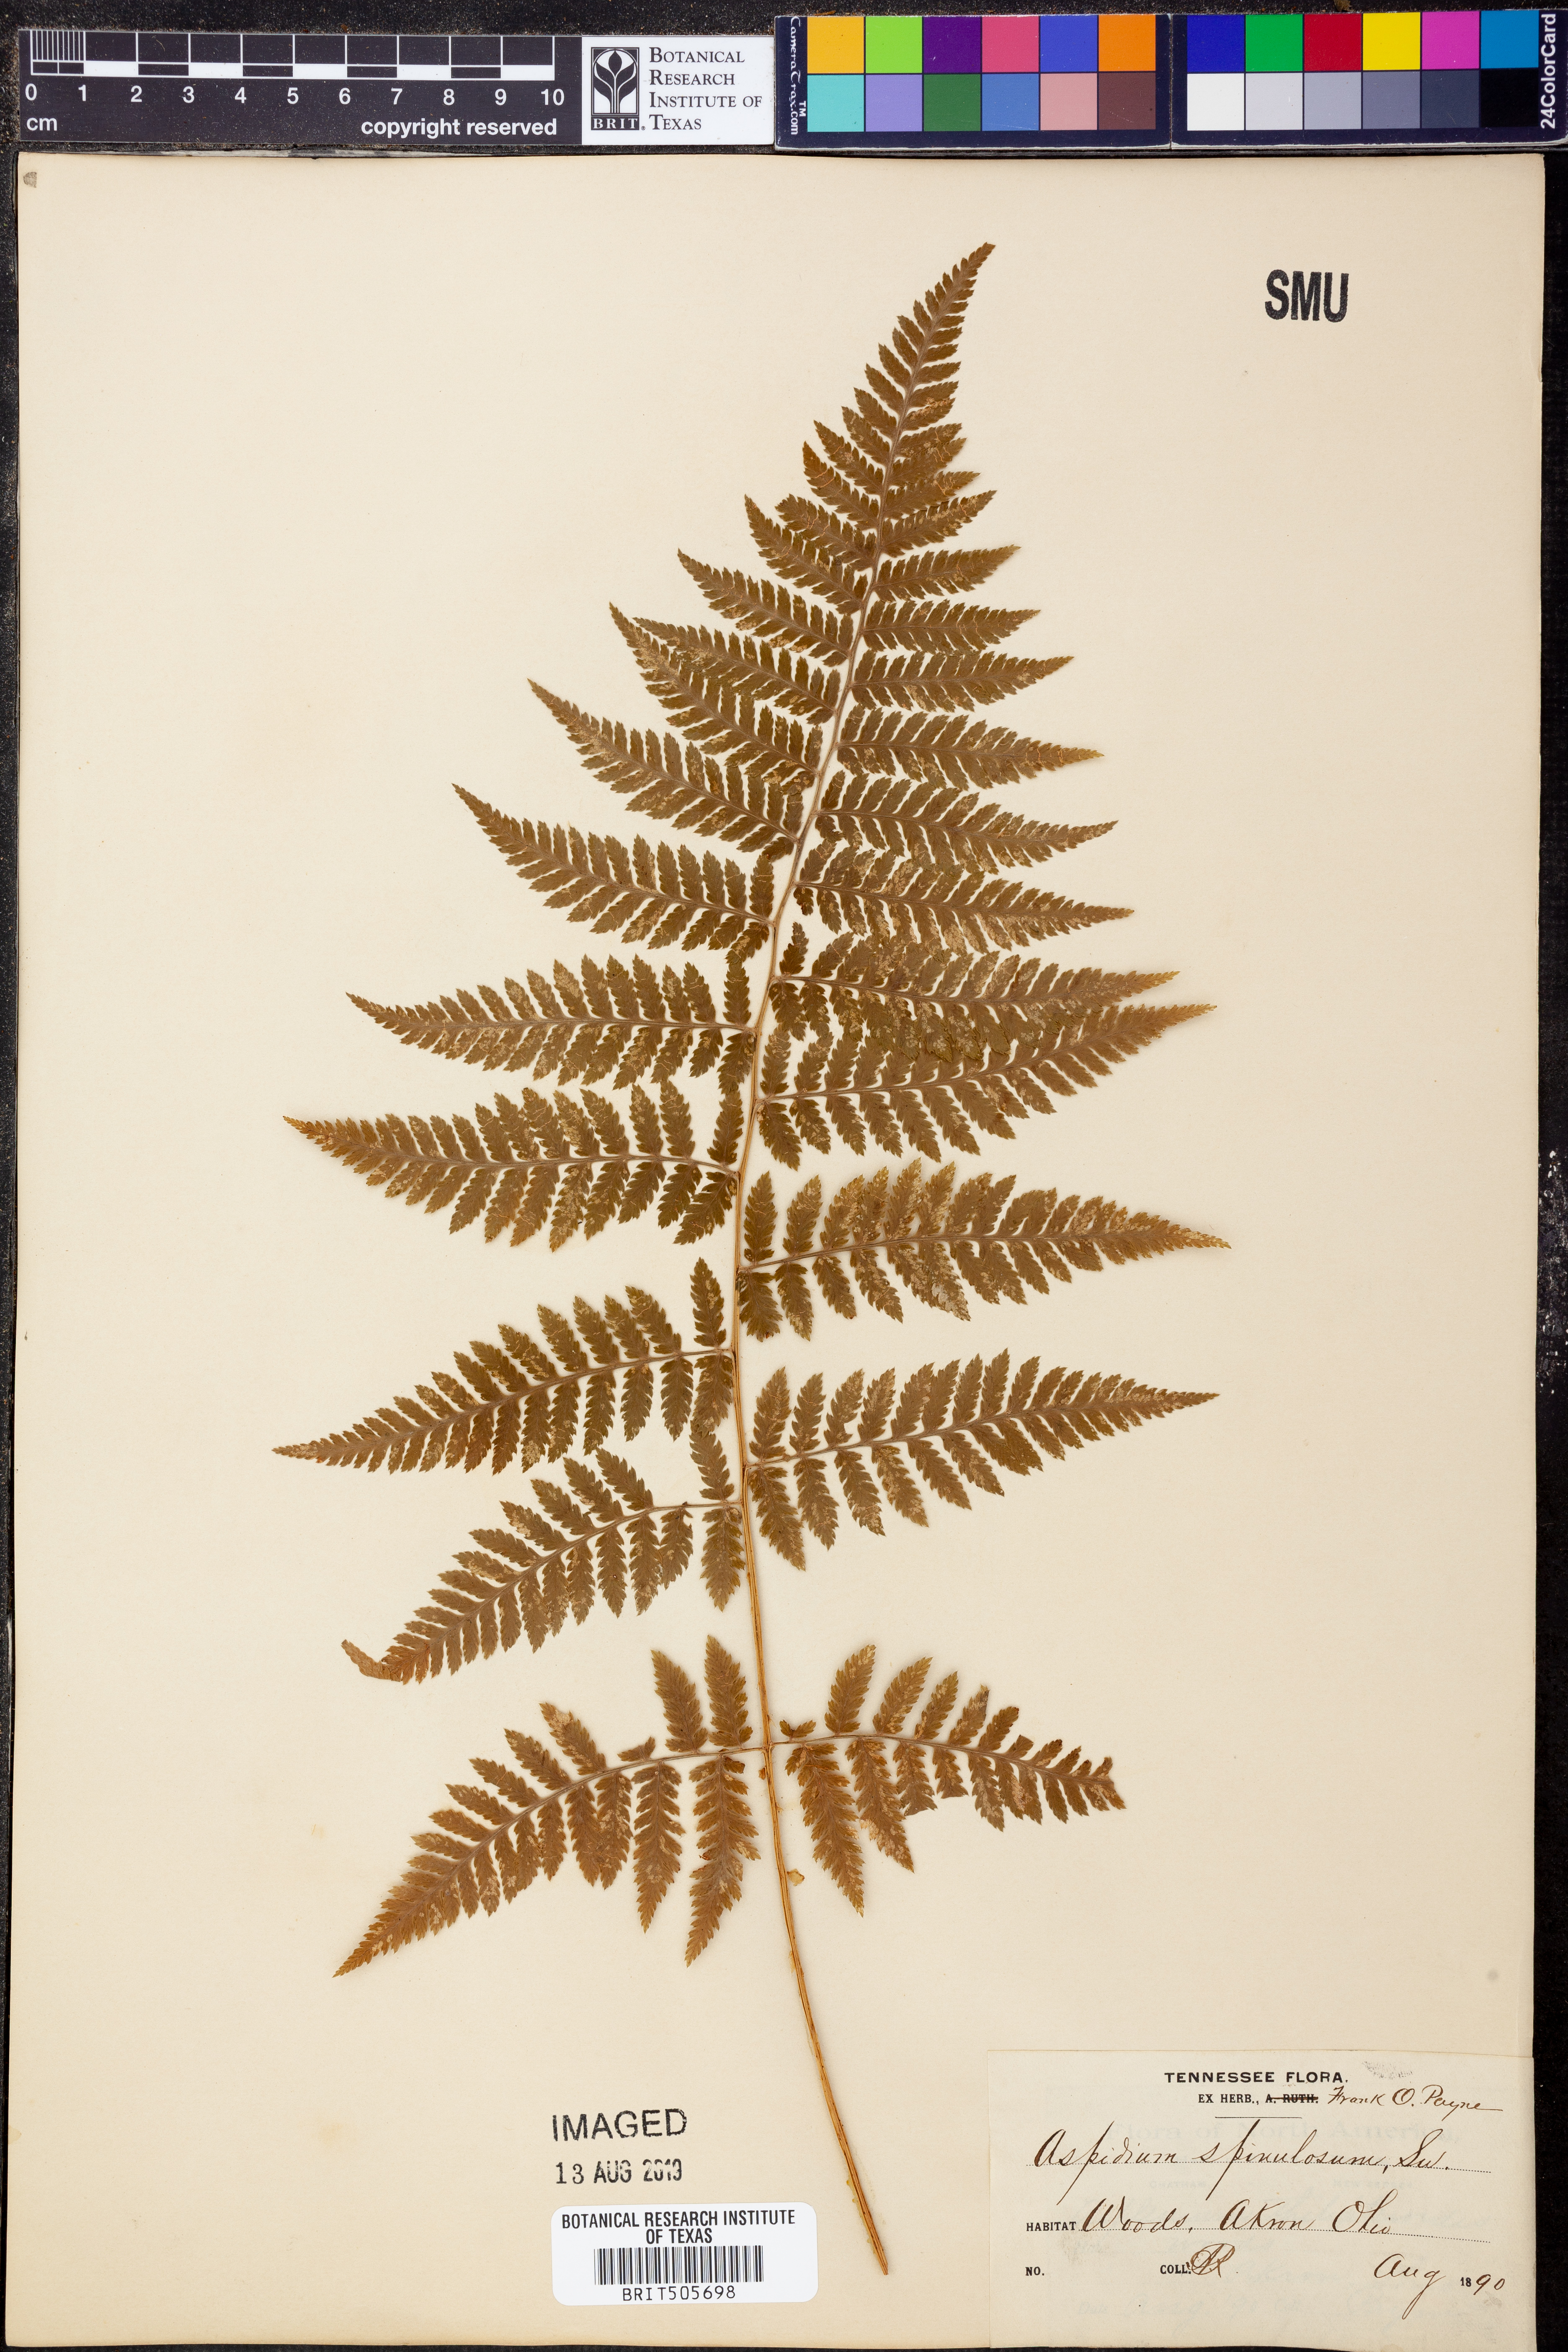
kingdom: Plantae
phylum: Tracheophyta
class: Polypodiopsida
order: Polypodiales
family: Dryopteridaceae
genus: Dryopteris
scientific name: Dryopteris carthusiana
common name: Narrow buckler-fern
